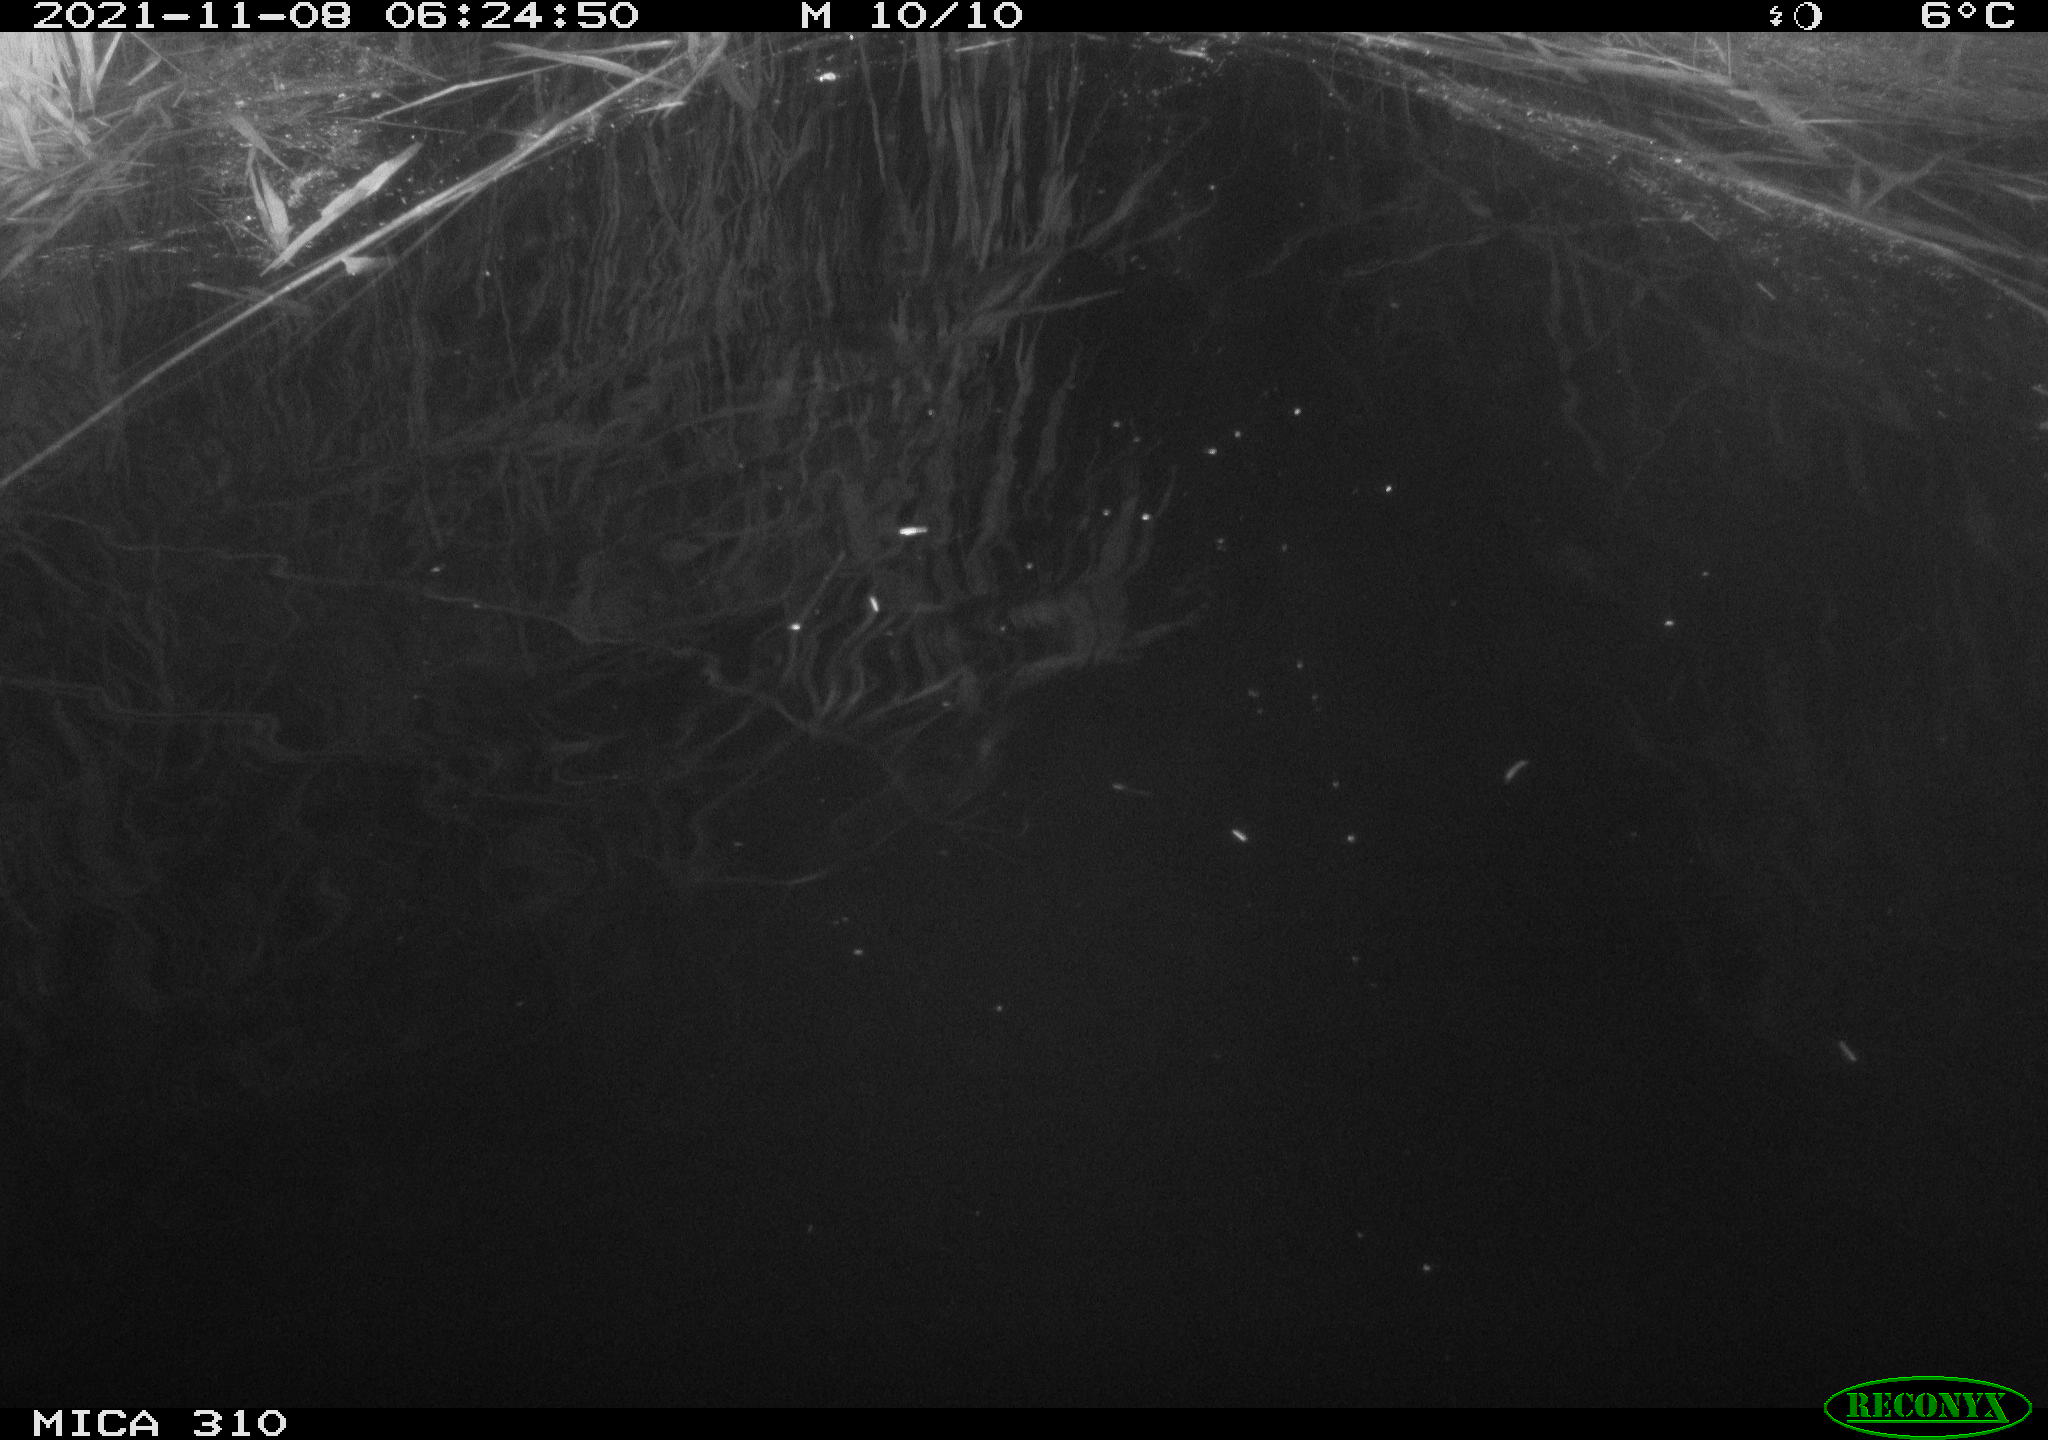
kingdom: Animalia
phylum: Chordata
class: Mammalia
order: Rodentia
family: Cricetidae
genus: Ondatra
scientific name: Ondatra zibethicus
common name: Muskrat
